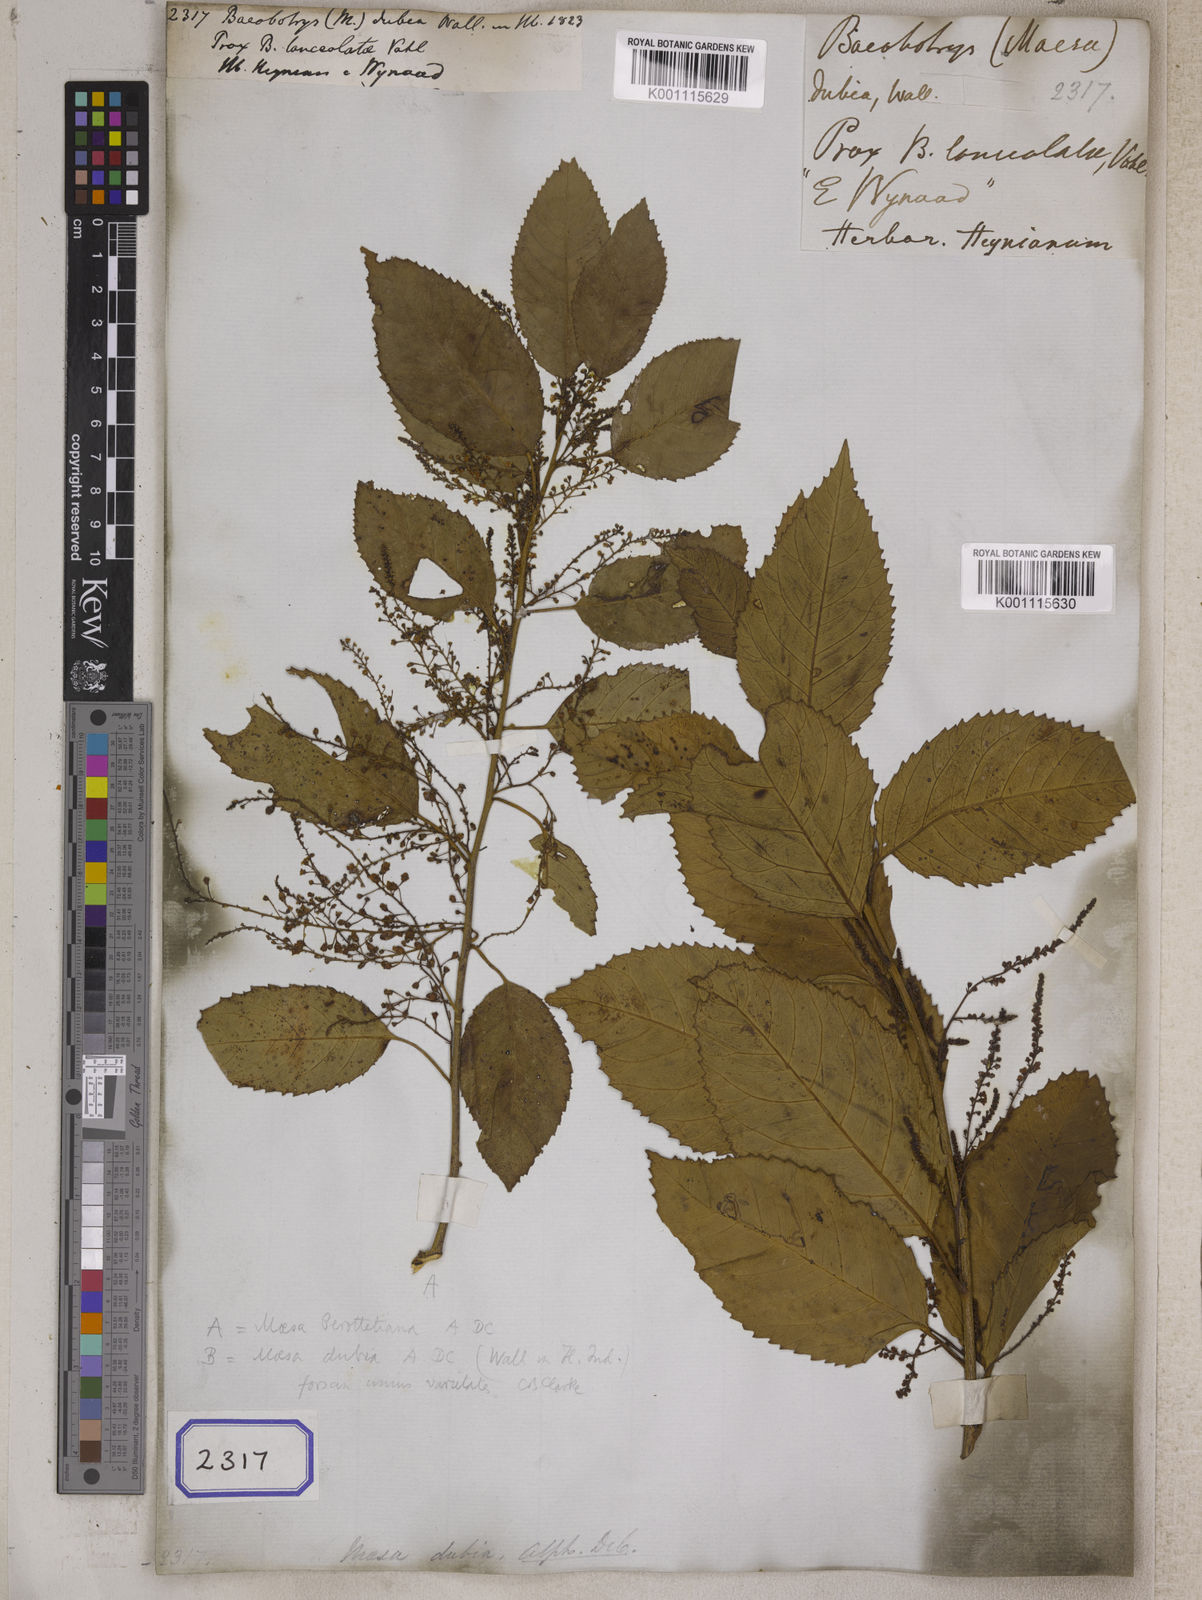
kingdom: Plantae
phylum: Tracheophyta
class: Magnoliopsida
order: Ericales
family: Primulaceae
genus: Maesa
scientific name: Maesa indica
